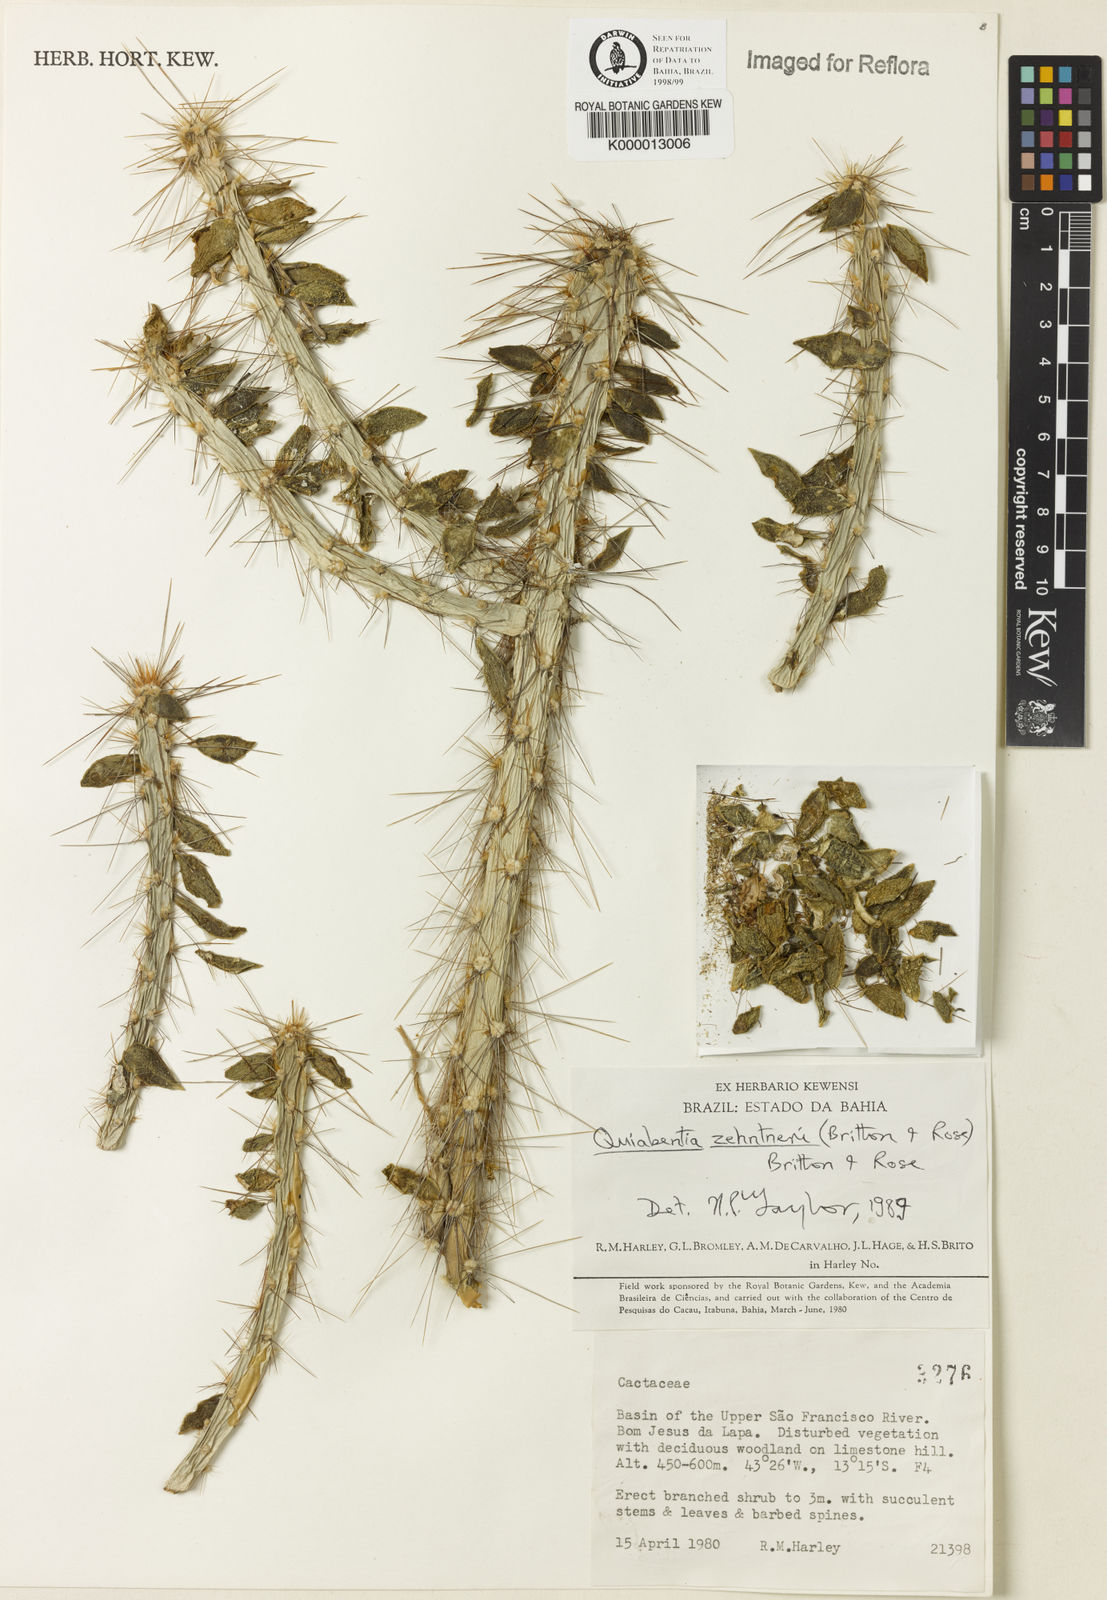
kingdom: Plantae
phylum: Tracheophyta
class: Magnoliopsida
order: Caryophyllales
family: Cactaceae
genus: Quiabentia
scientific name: Quiabentia zehntneri
